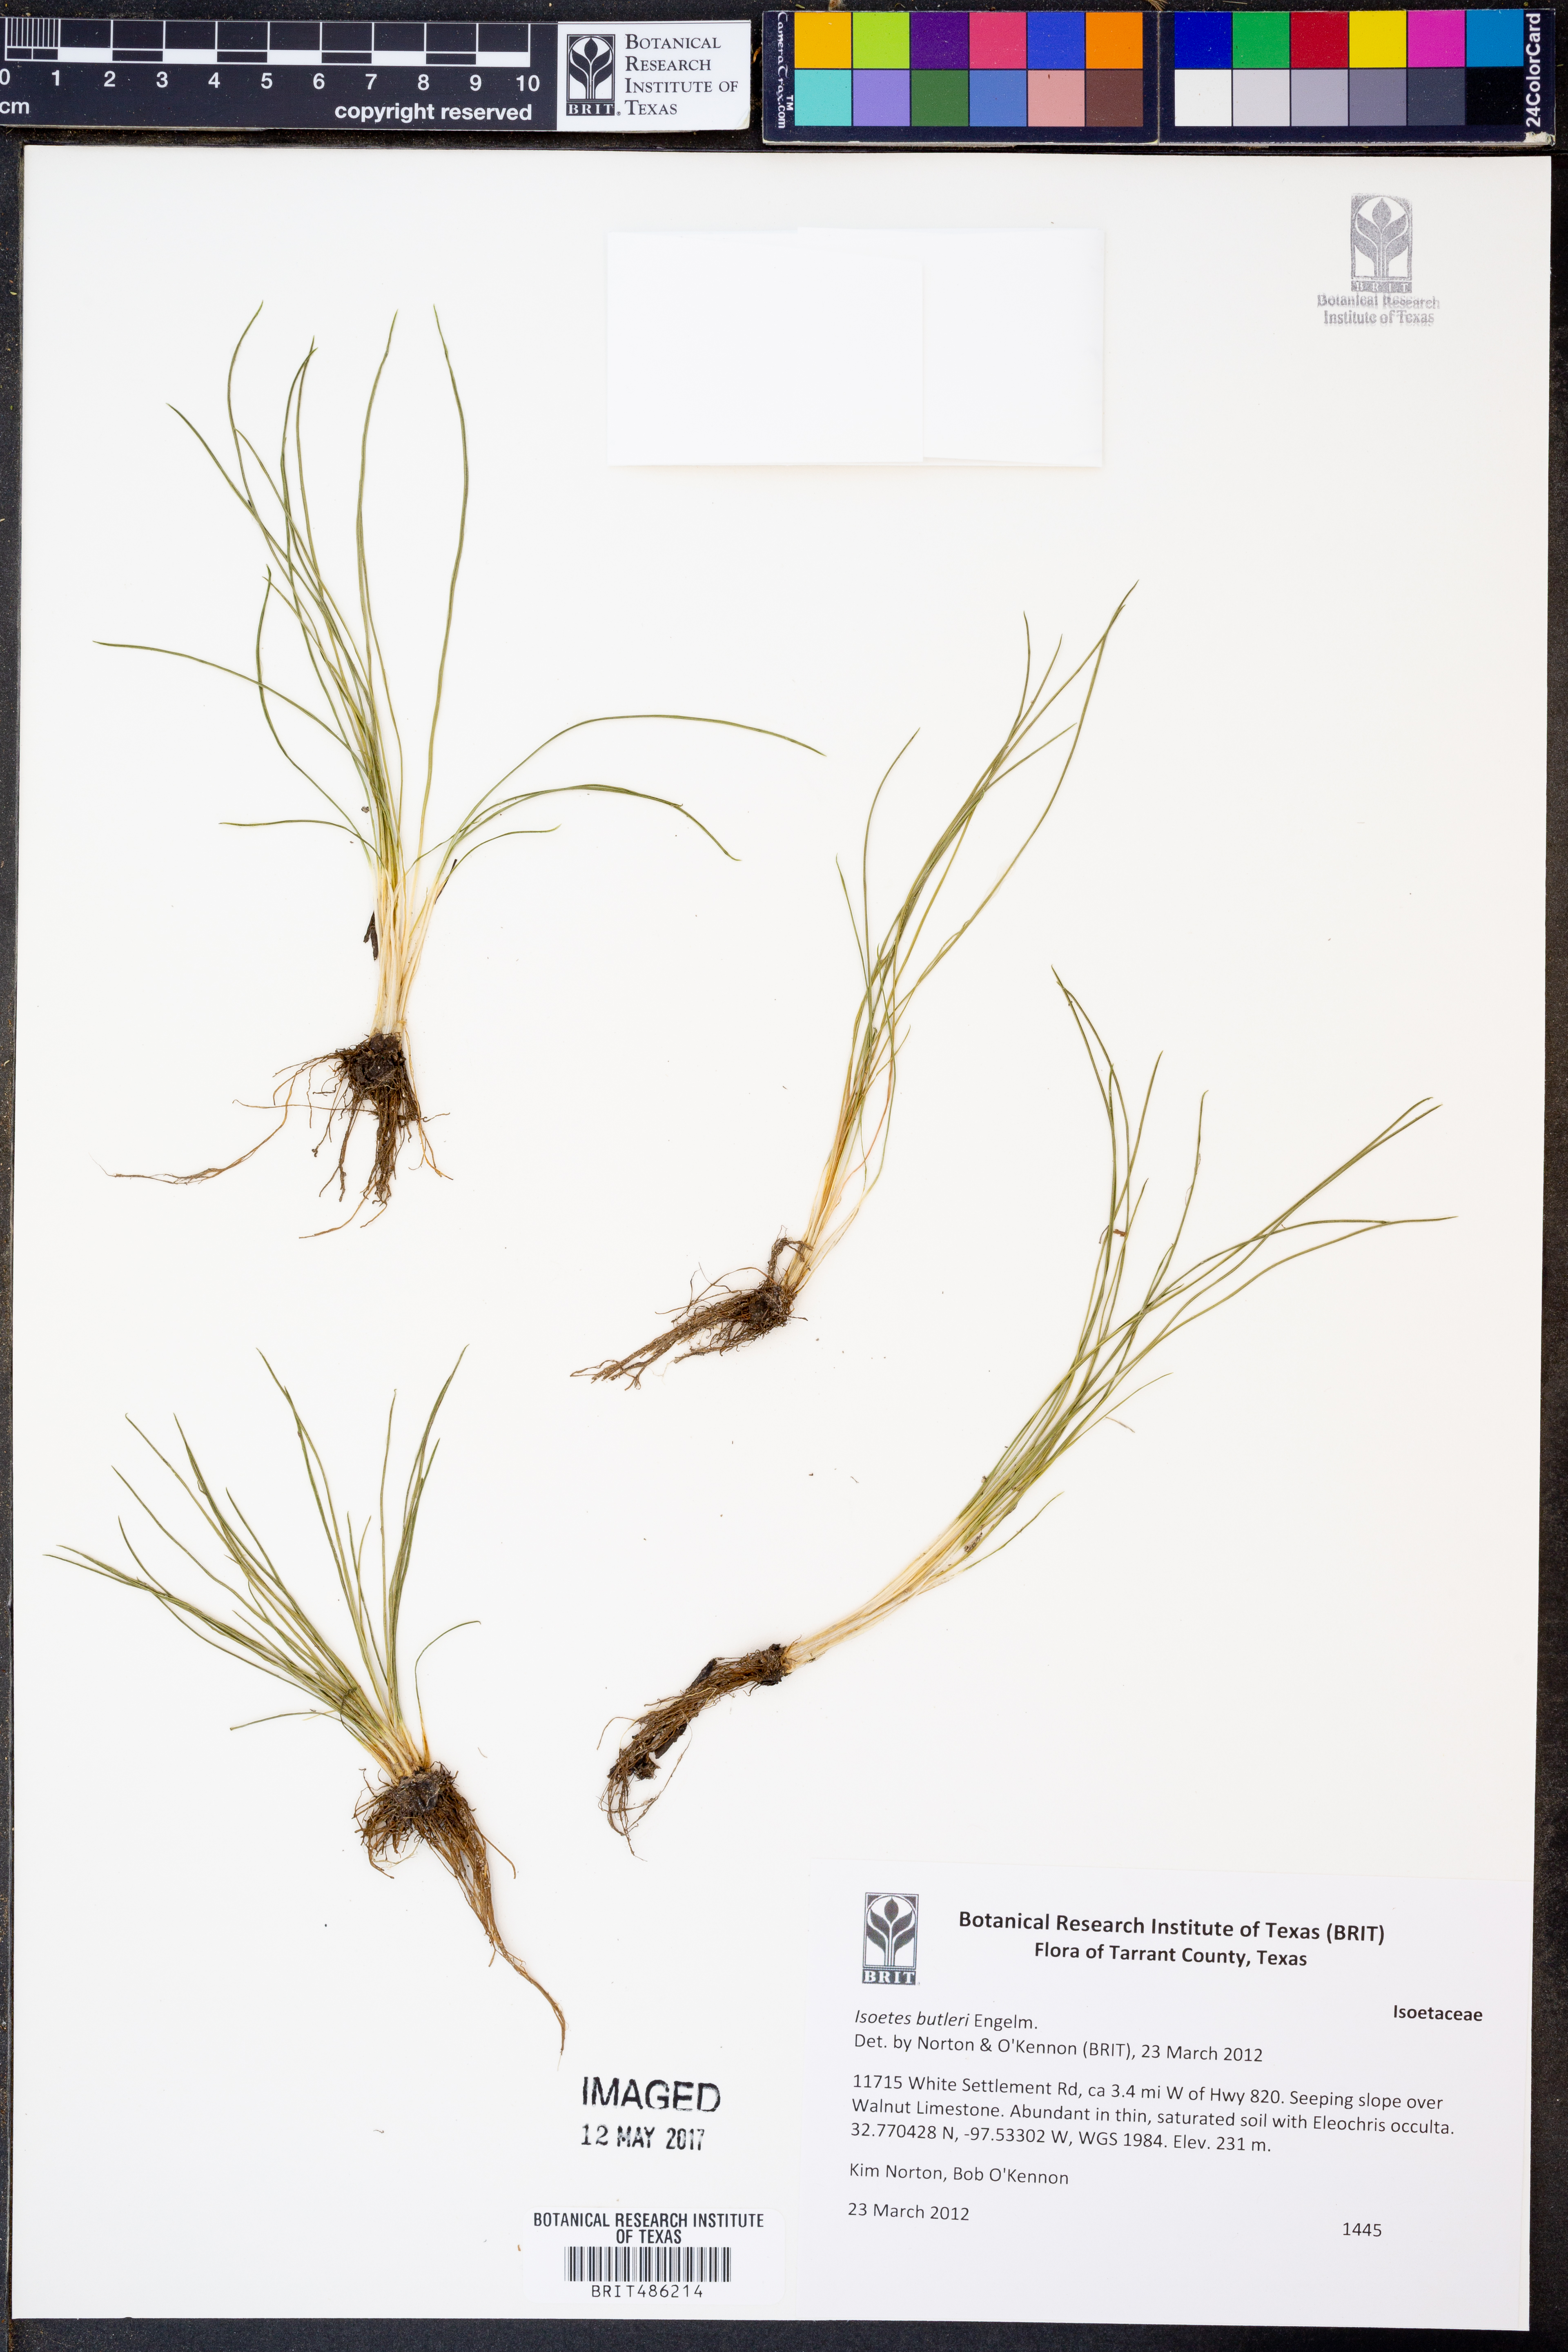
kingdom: Plantae
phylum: Tracheophyta
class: Lycopodiopsida
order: Isoetales
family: Isoetaceae
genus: Isoetes
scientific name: Isoetes butleri
